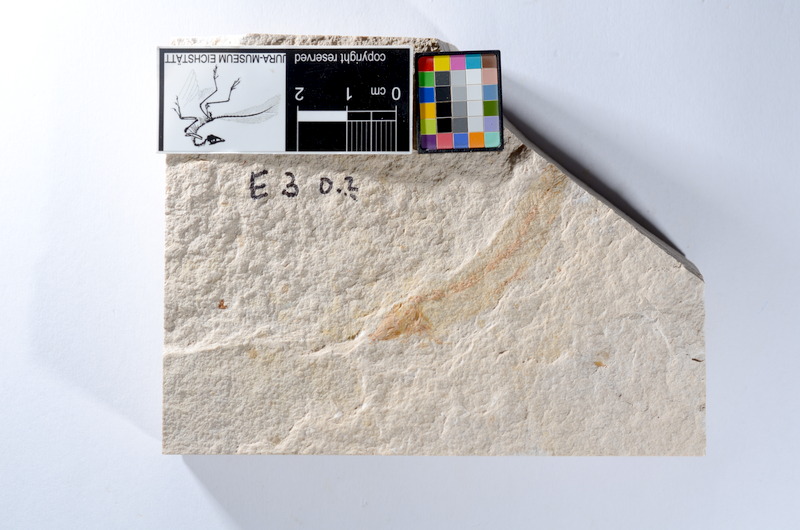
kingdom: Animalia
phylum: Chordata
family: Ascalaboidae
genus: Tharsis
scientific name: Tharsis dubius
